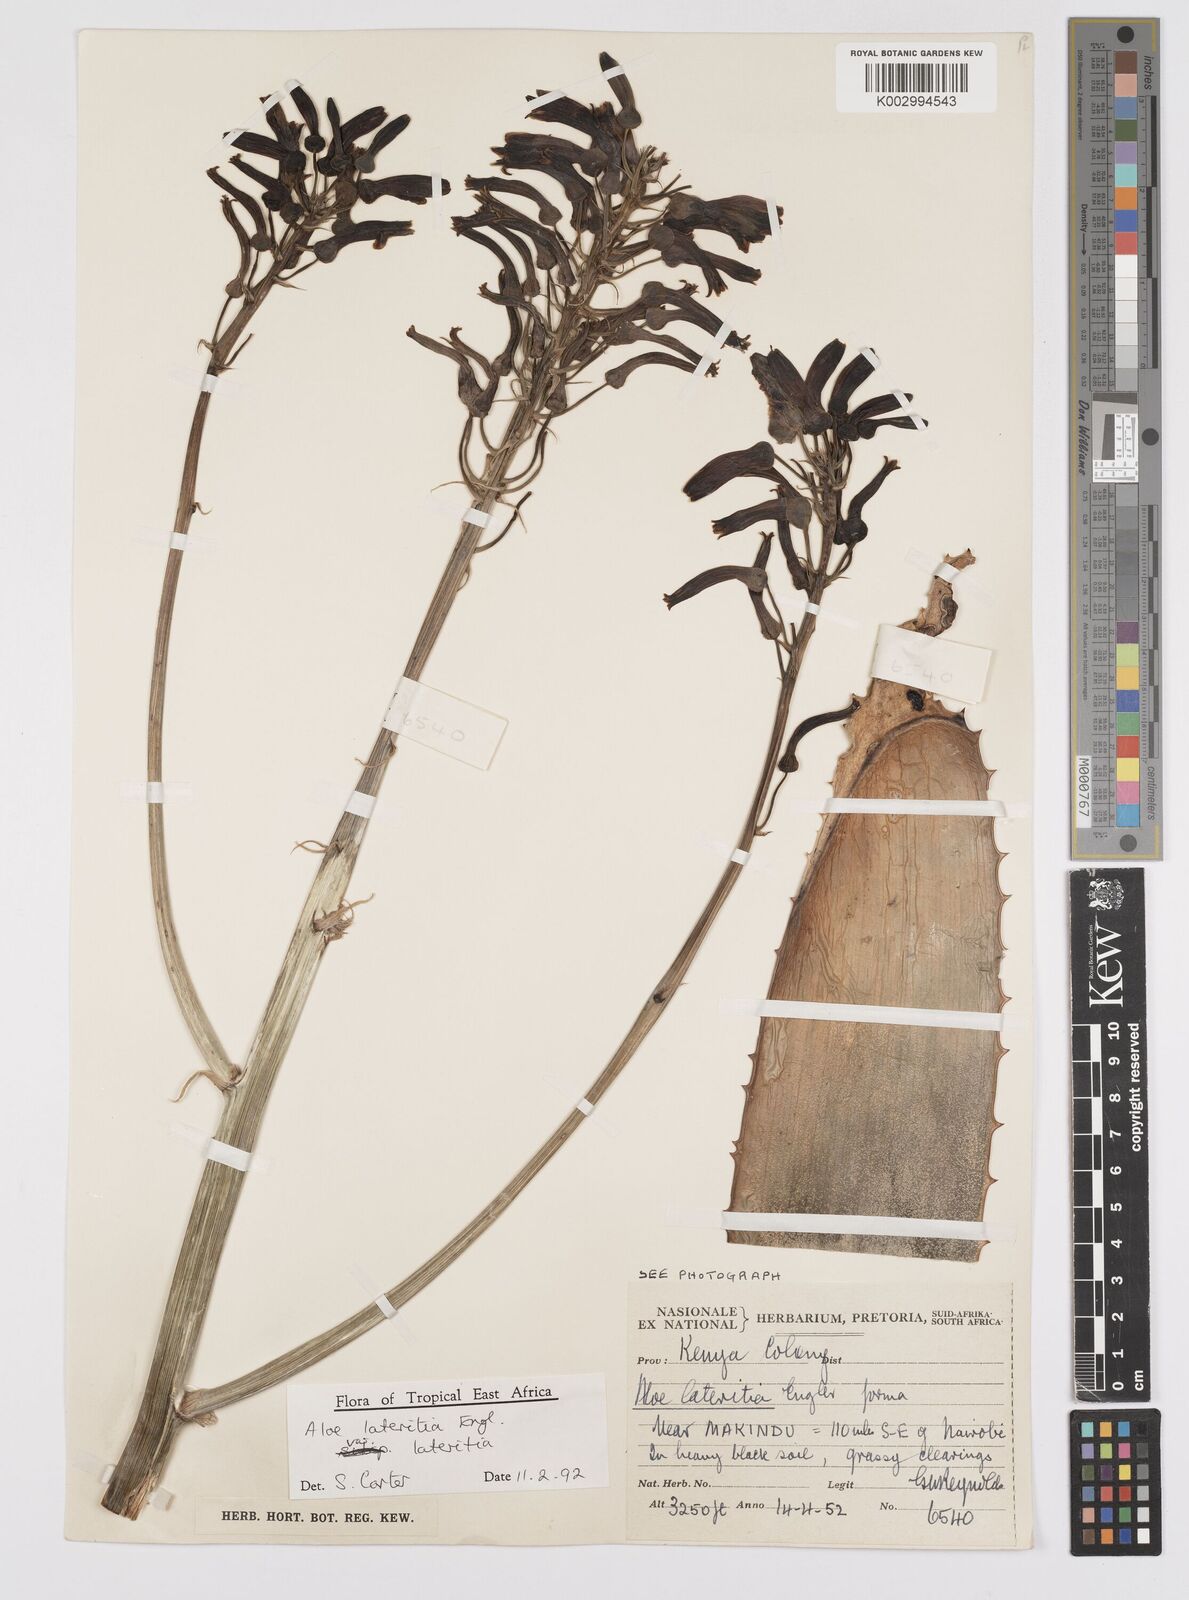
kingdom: Plantae
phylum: Tracheophyta
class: Liliopsida
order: Asparagales
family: Asphodelaceae
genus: Aloe
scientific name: Aloe lateritia
